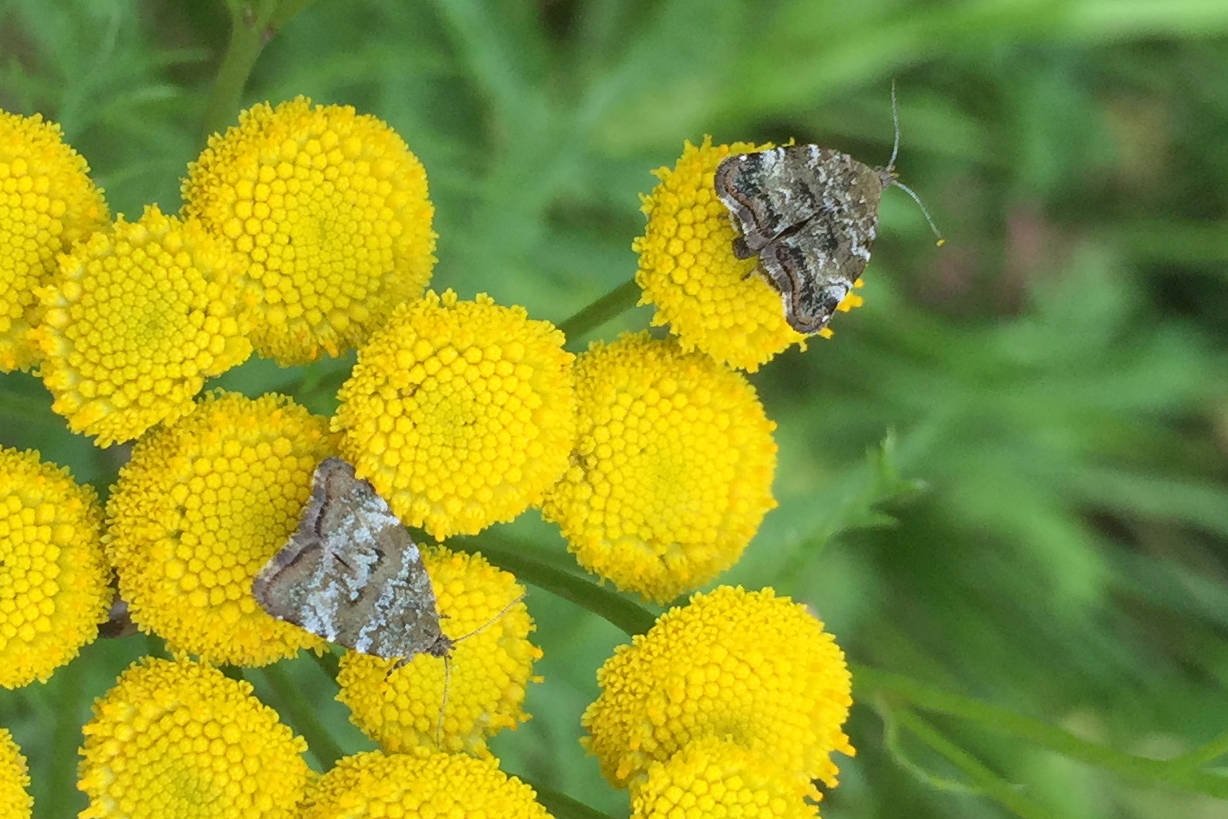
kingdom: Animalia
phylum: Arthropoda
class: Insecta
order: Lepidoptera
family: Choreutidae
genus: Choreutis
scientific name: Choreutis diana
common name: Inverness twitcher
